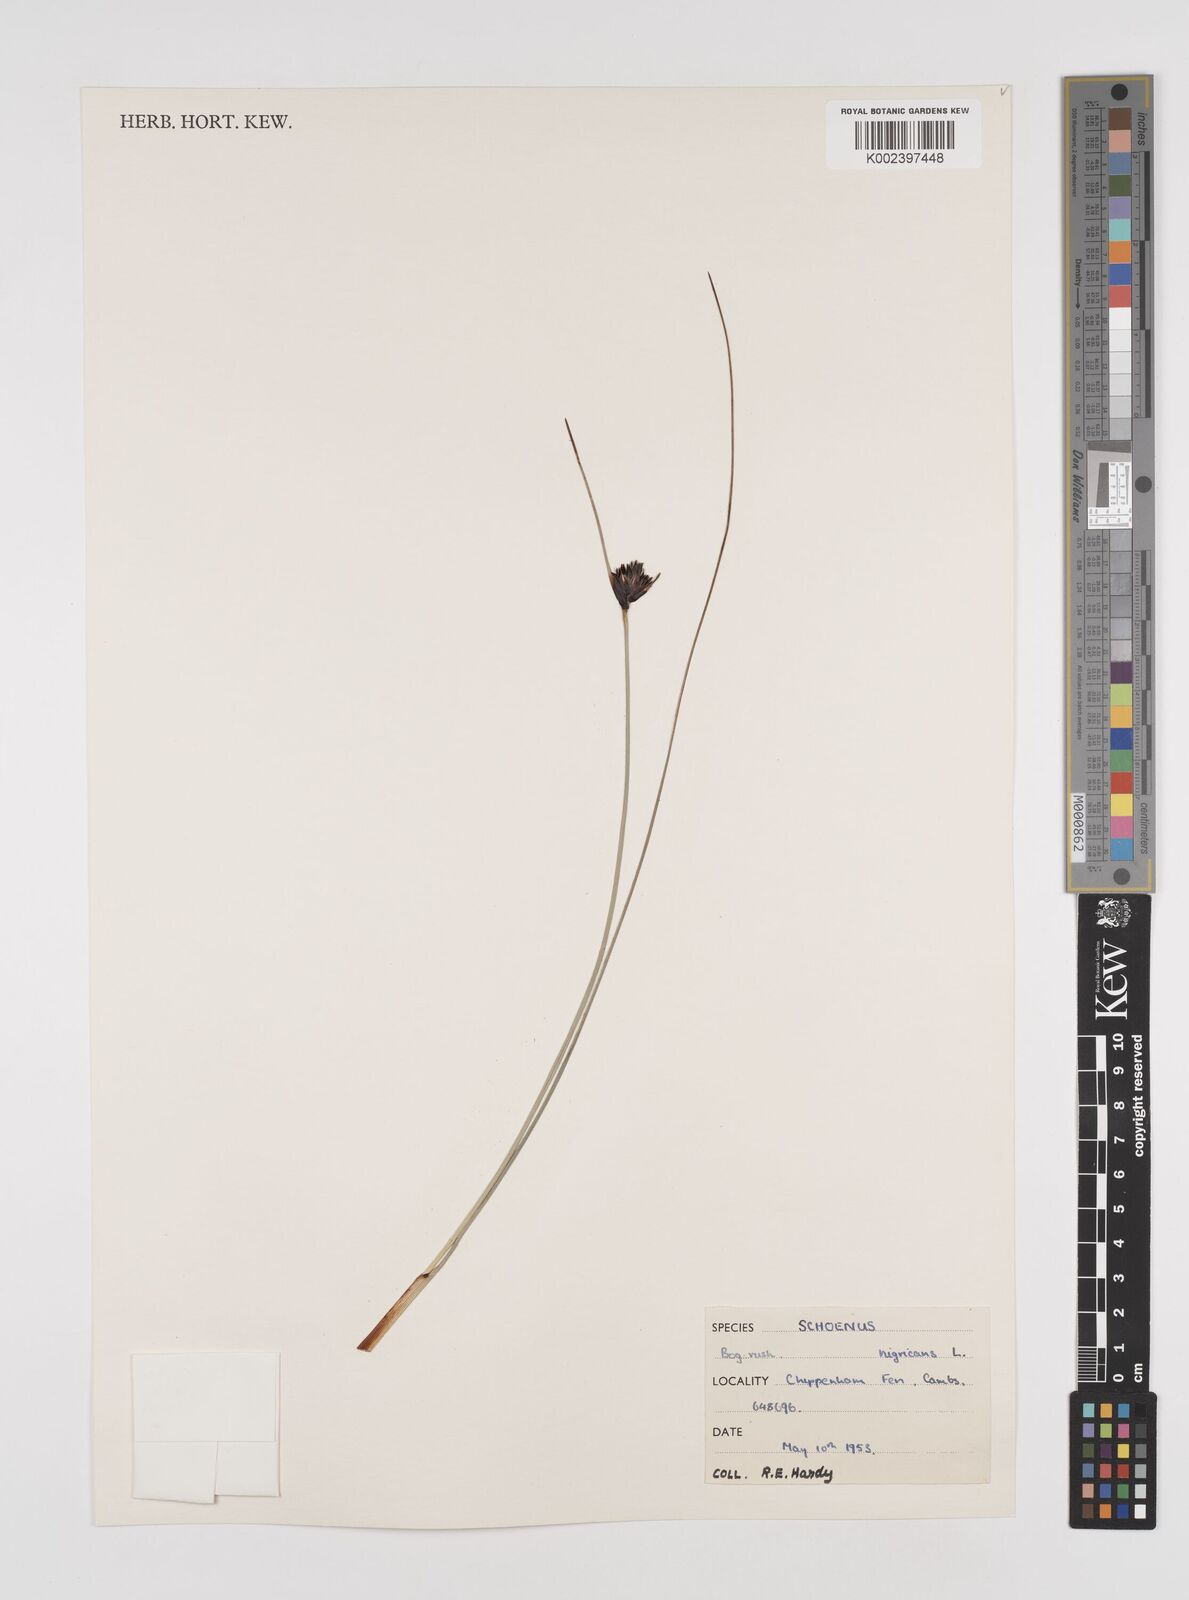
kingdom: Plantae
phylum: Tracheophyta
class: Liliopsida
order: Poales
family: Cyperaceae
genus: Schoenus
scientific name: Schoenus nigricans
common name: Black bog-rush
